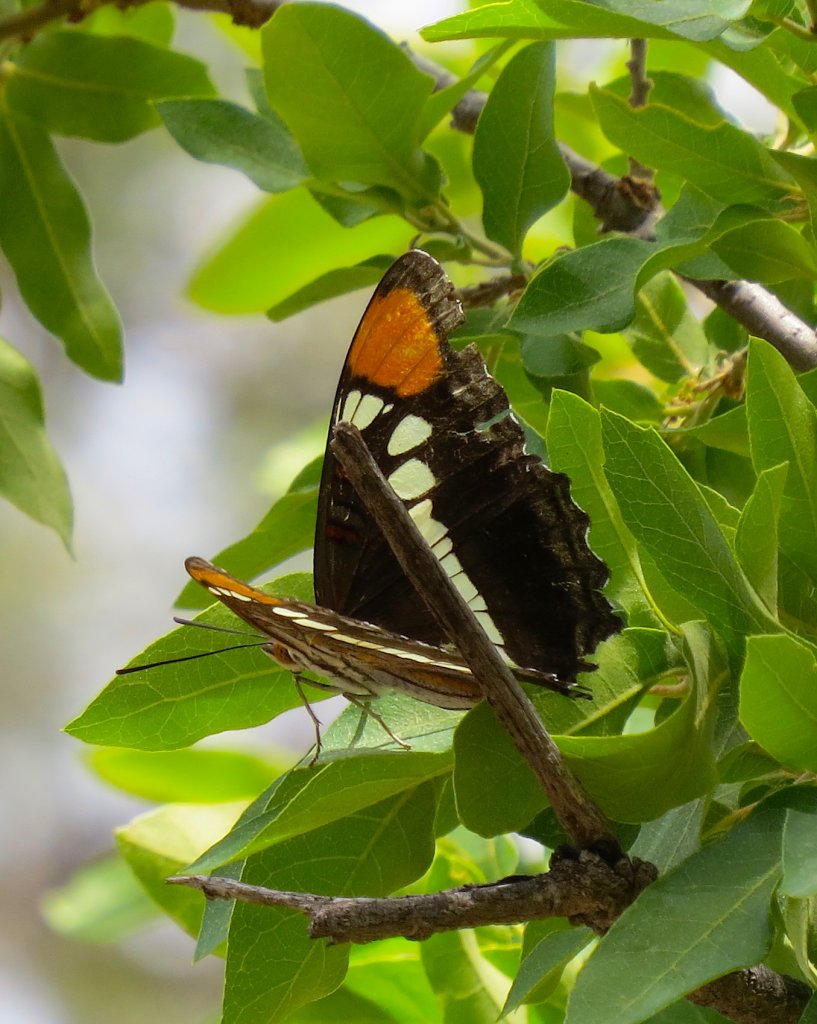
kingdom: Animalia
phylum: Arthropoda
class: Insecta
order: Lepidoptera
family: Nymphalidae
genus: Limenitis
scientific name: Limenitis bredowii
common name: Arizona Sister
